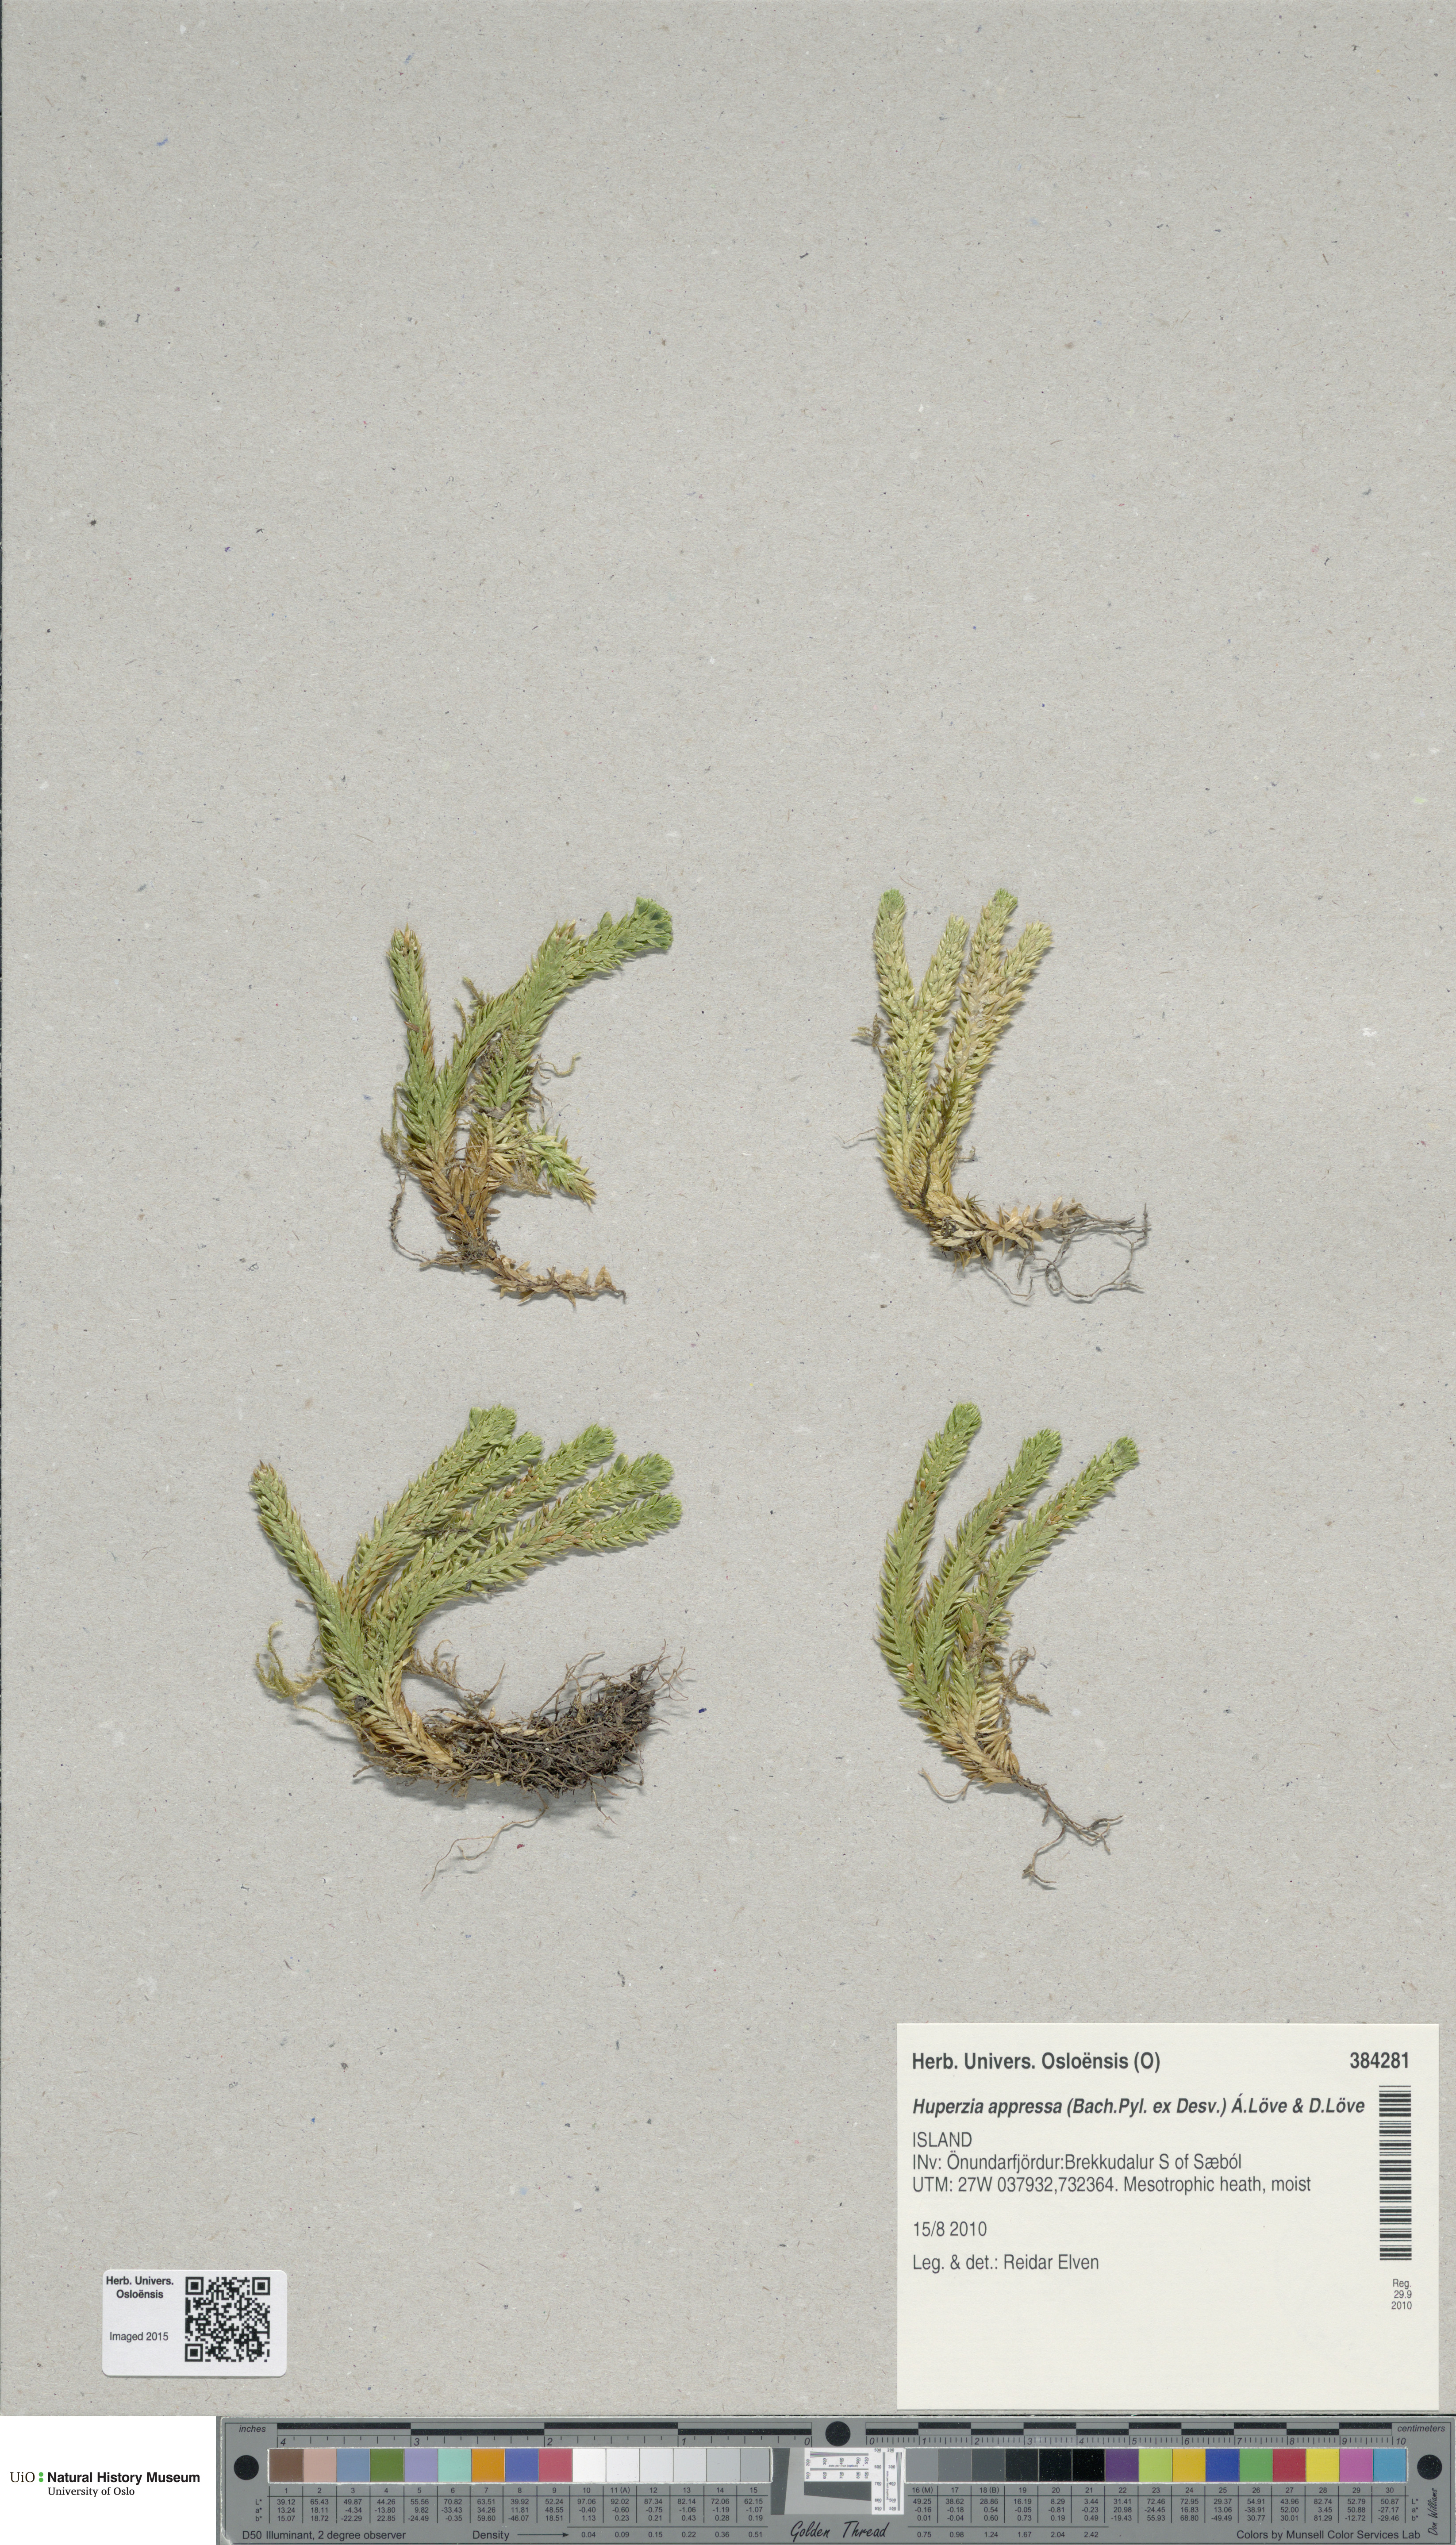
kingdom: Plantae
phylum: Tracheophyta
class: Lycopodiopsida
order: Lycopodiales
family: Lycopodiaceae
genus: Huperzia
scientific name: Huperzia selago
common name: Northern firmoss
